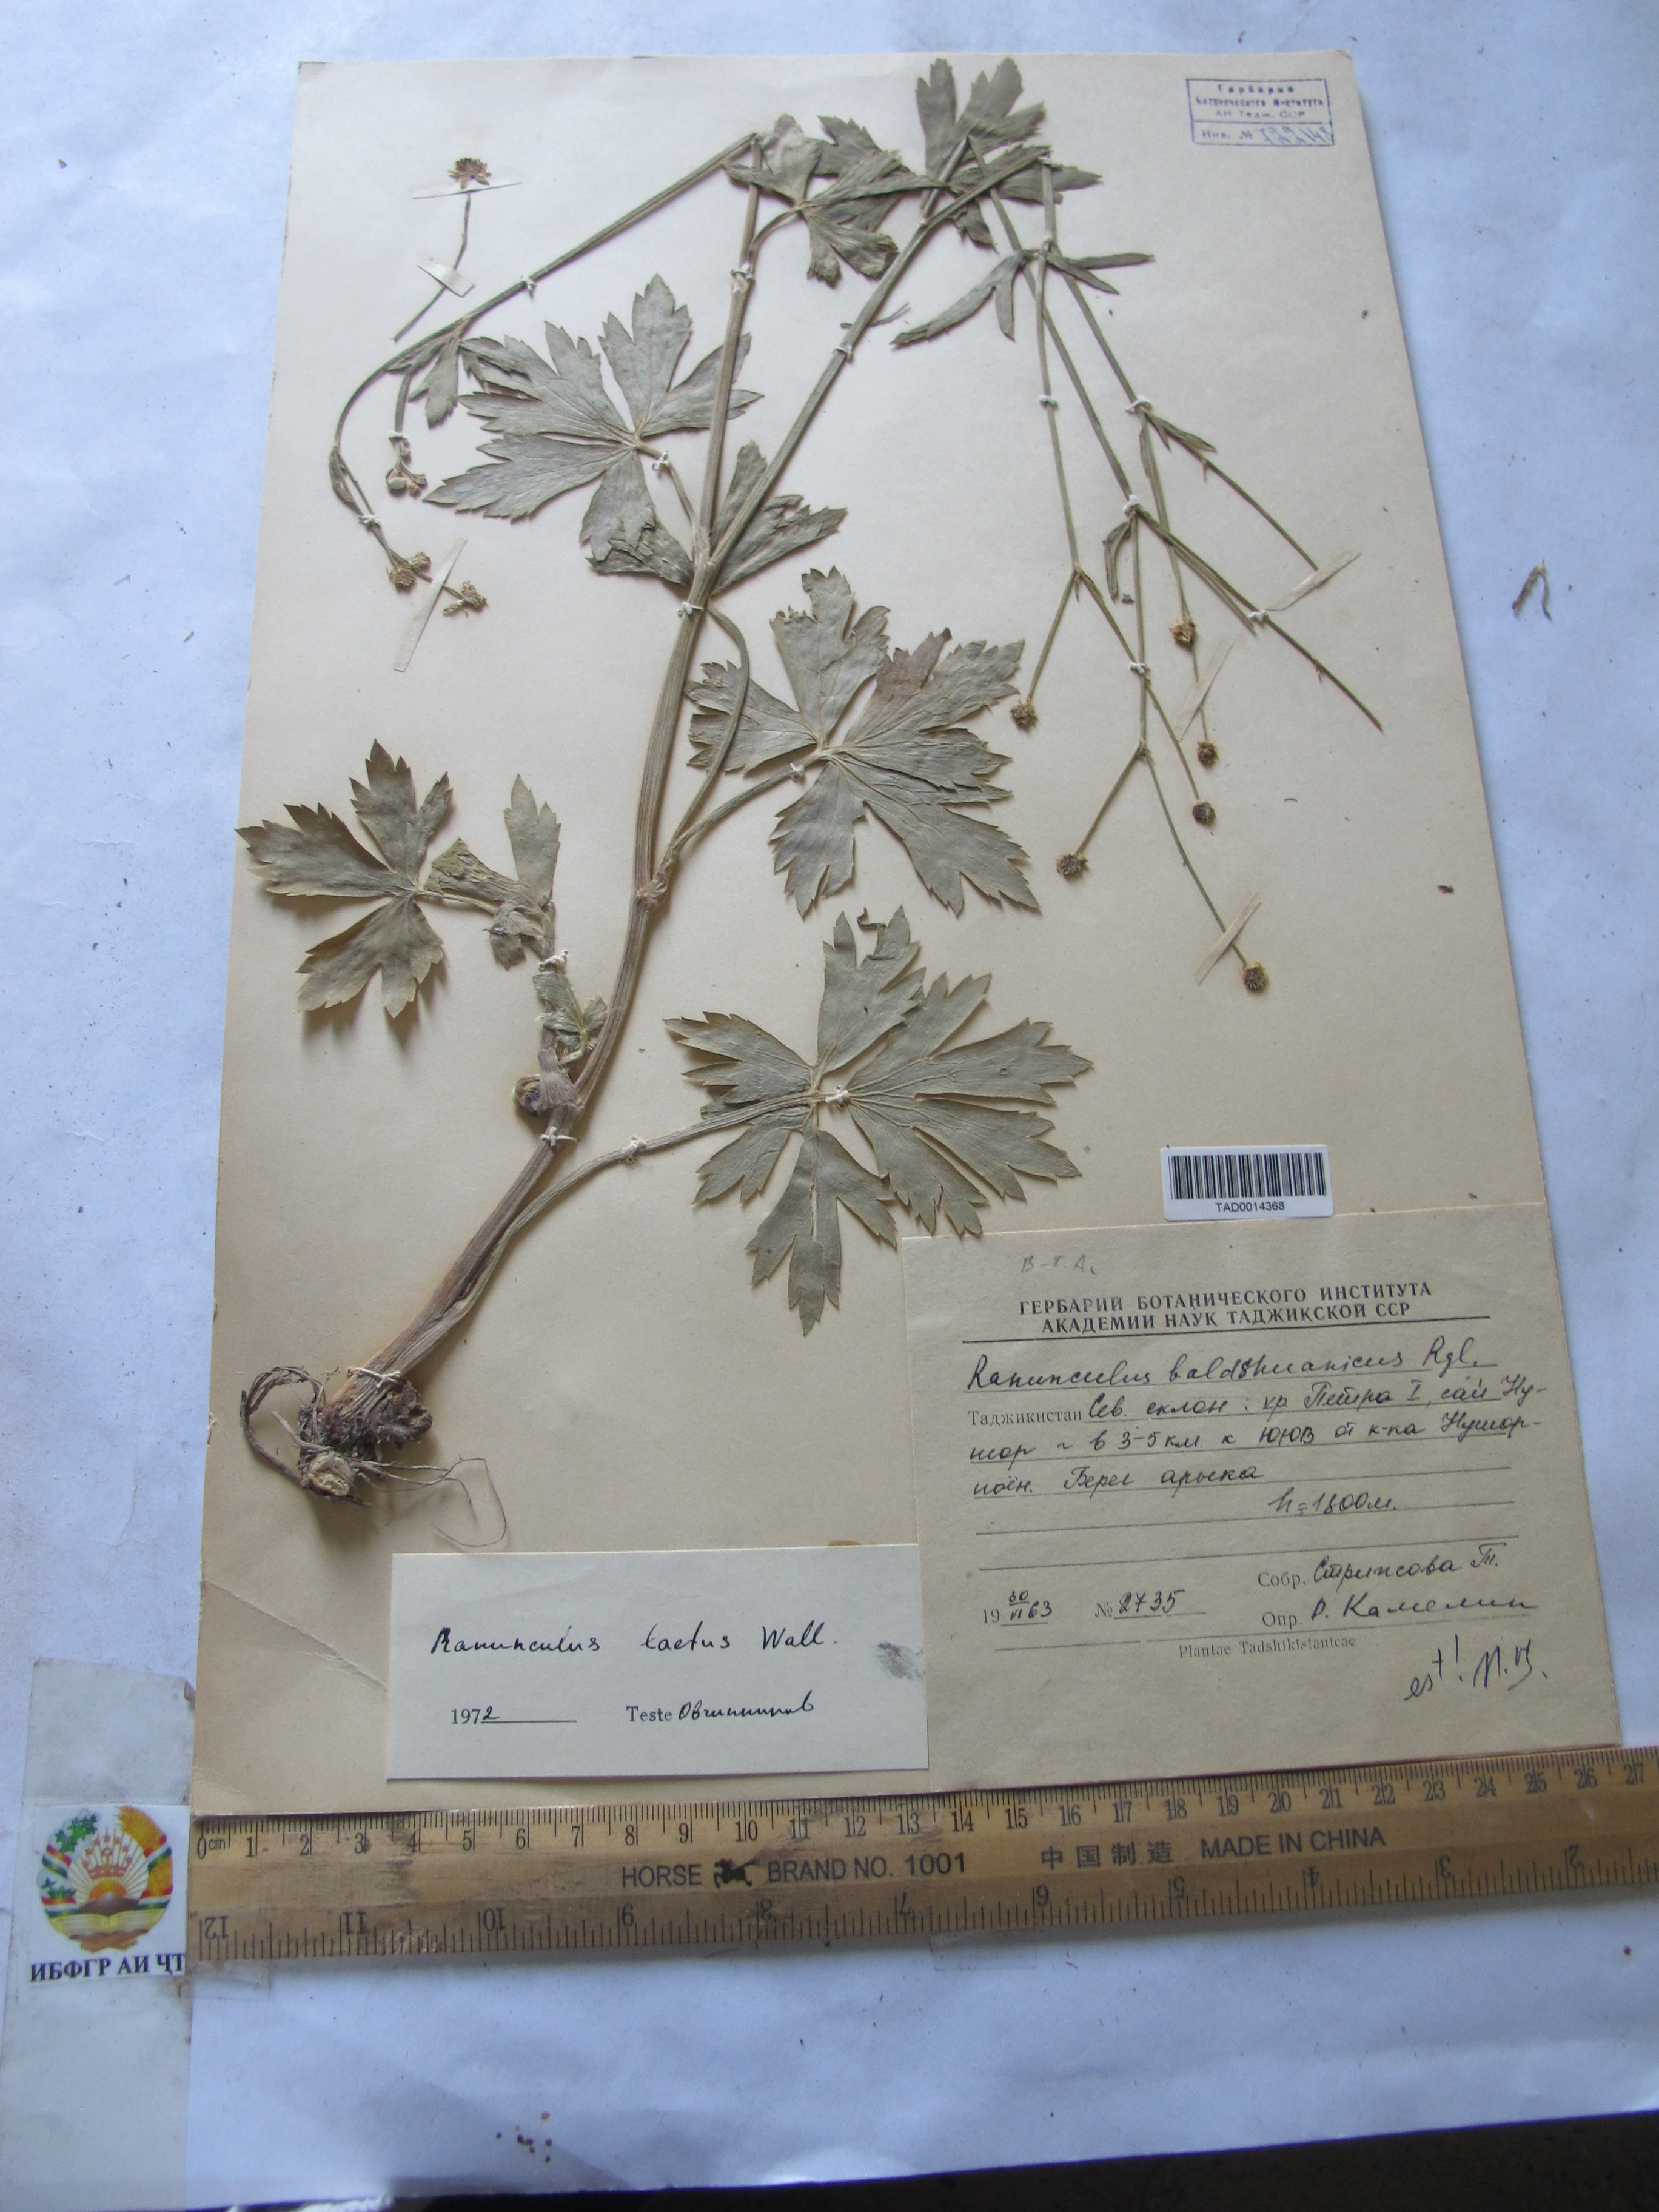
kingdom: Plantae
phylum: Tracheophyta
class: Magnoliopsida
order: Ranunculales
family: Ranunculaceae
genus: Ranunculus
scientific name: Ranunculus distans
